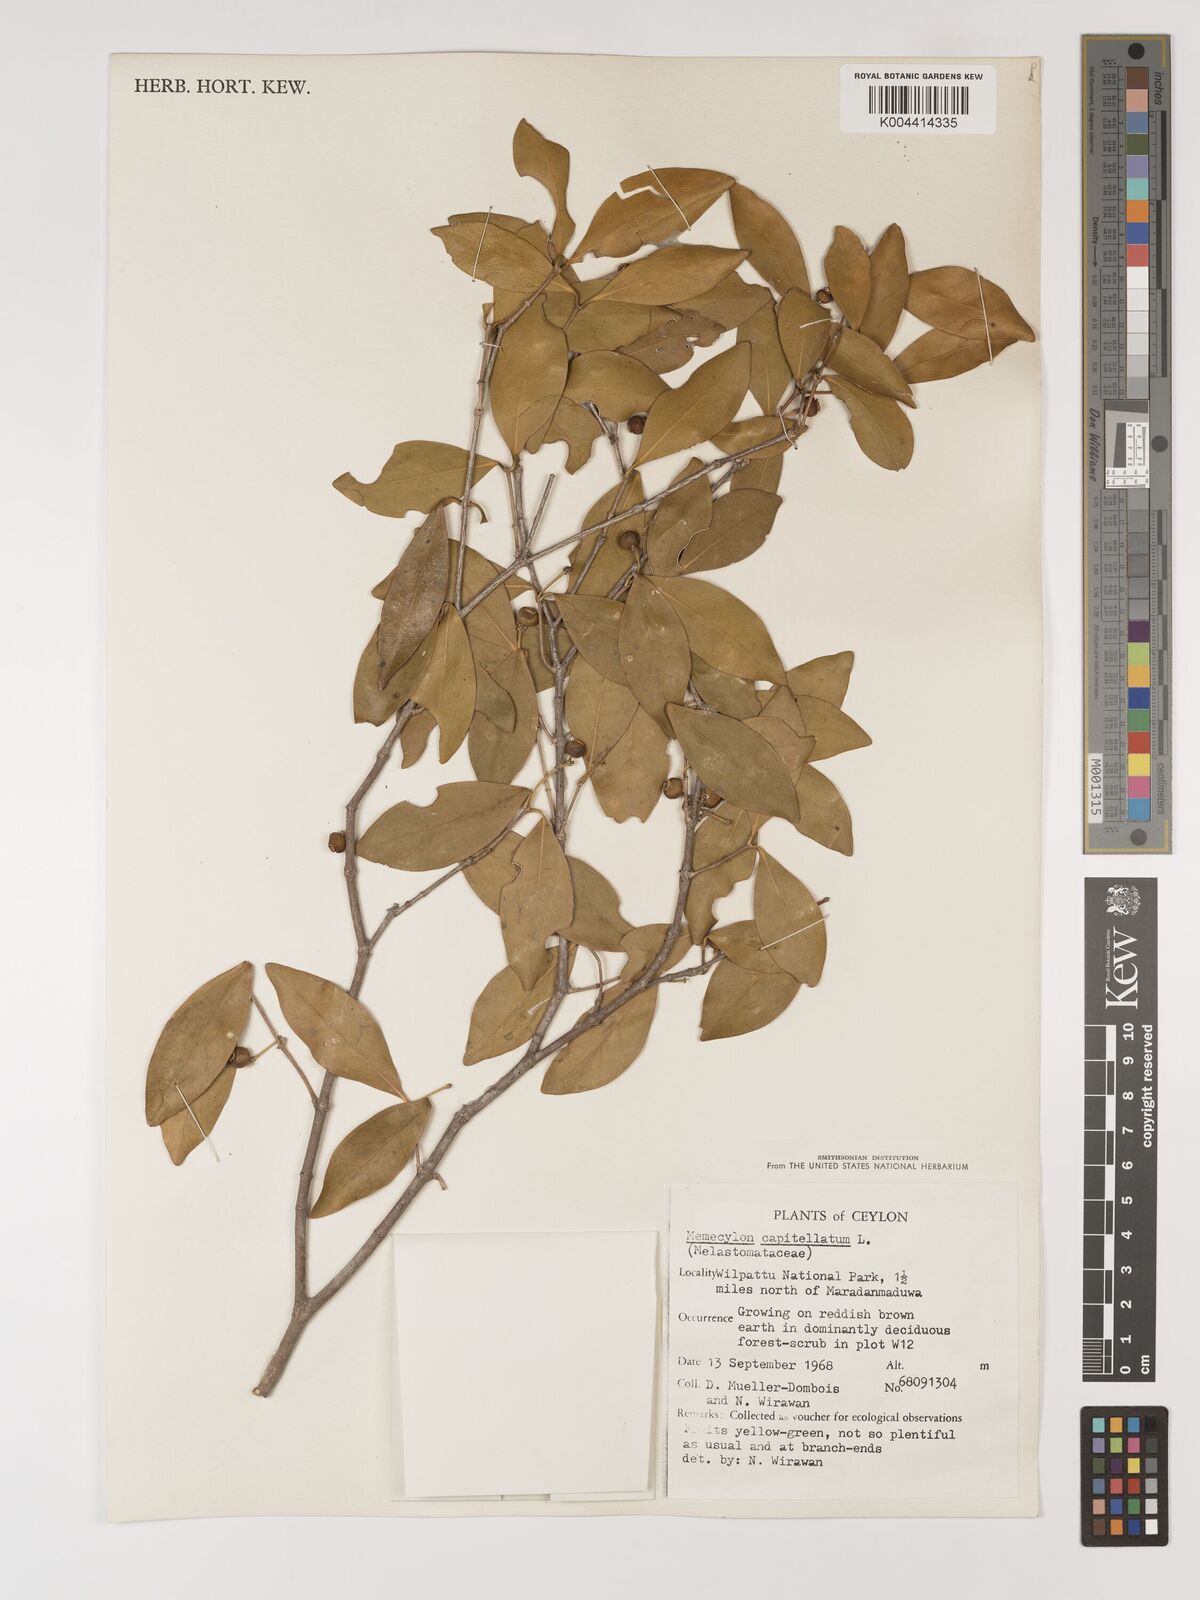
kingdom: Plantae
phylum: Tracheophyta
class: Magnoliopsida
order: Myrtales
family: Melastomataceae
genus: Memecylon
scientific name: Memecylon capitellatum
